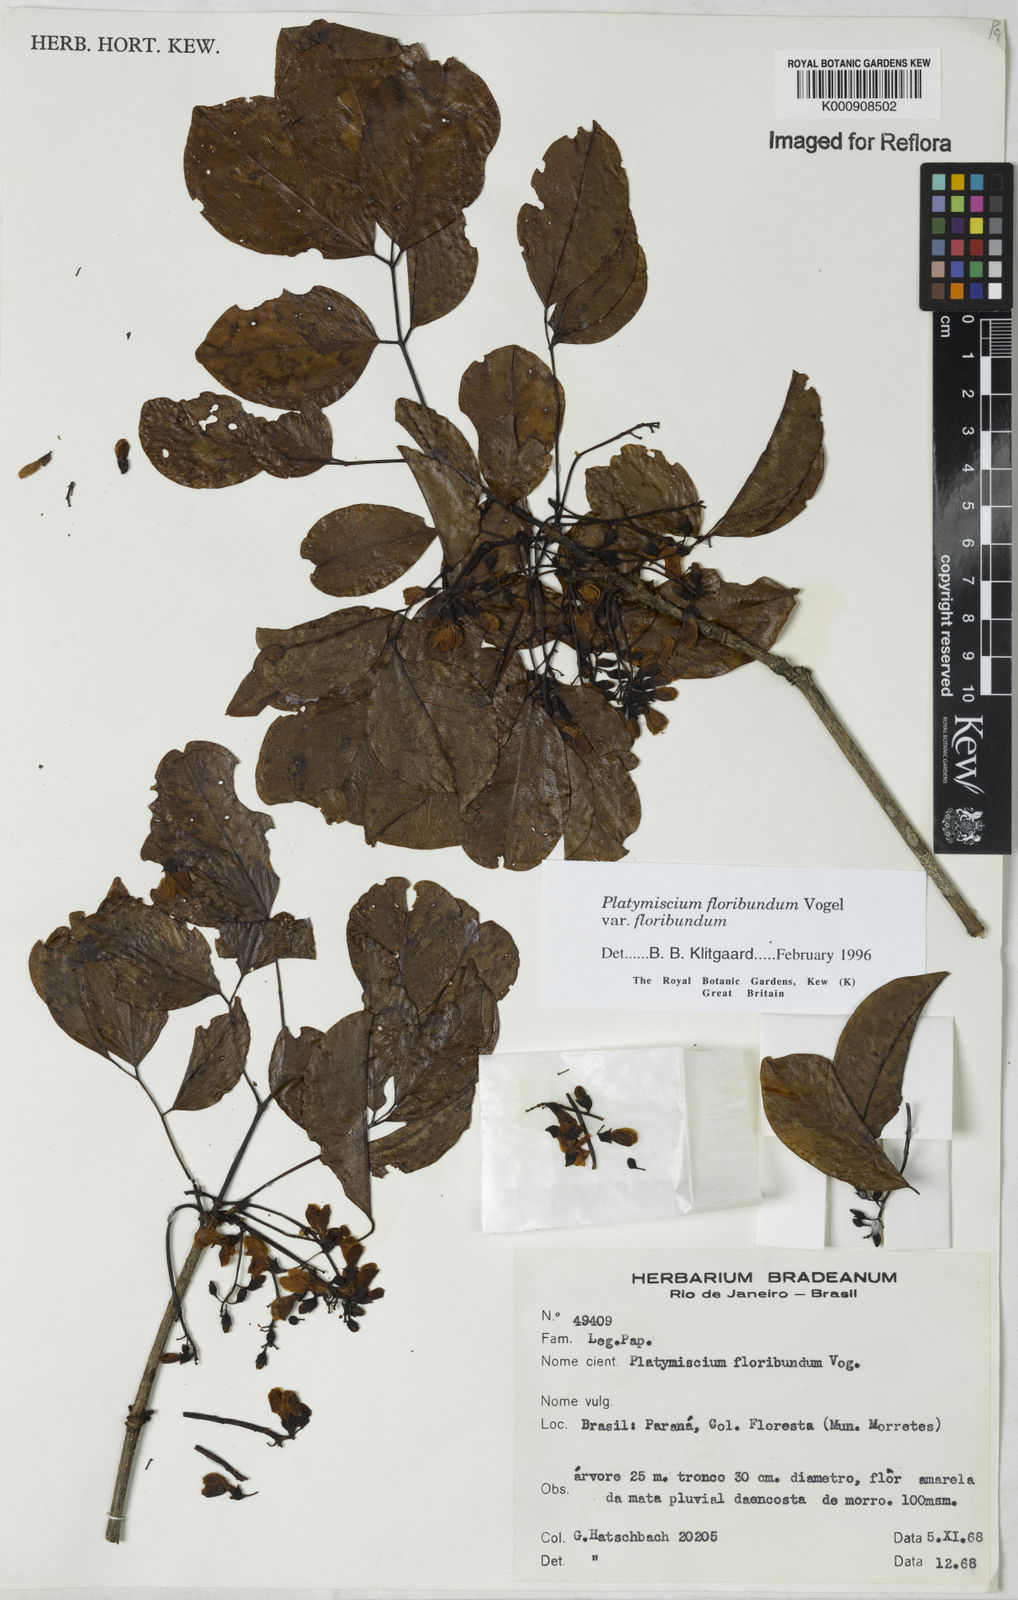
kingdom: Plantae
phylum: Tracheophyta
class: Magnoliopsida
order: Fabales
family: Fabaceae
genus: Platymiscium
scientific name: Platymiscium floribundum
